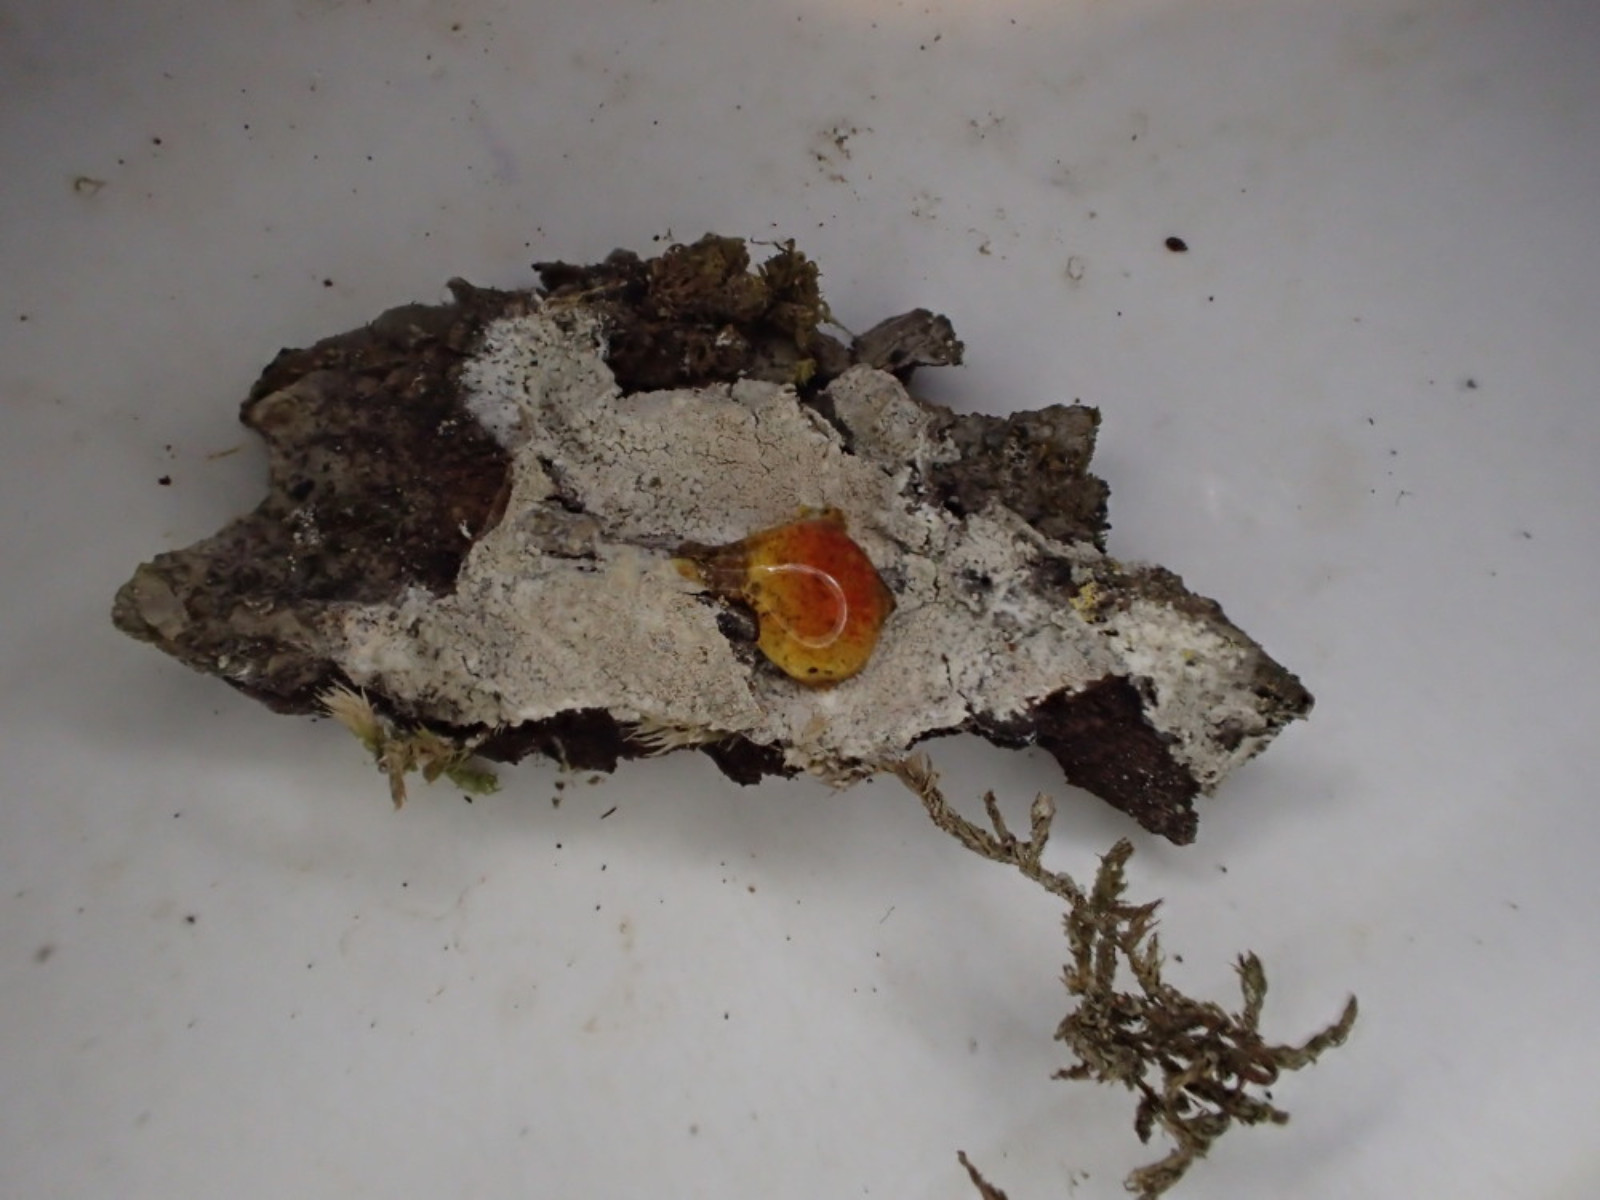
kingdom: Fungi
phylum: Ascomycota
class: Lecanoromycetes
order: Ostropales
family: Phlyctidaceae
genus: Phlyctis
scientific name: Phlyctis argena
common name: almindelig sølvlav
